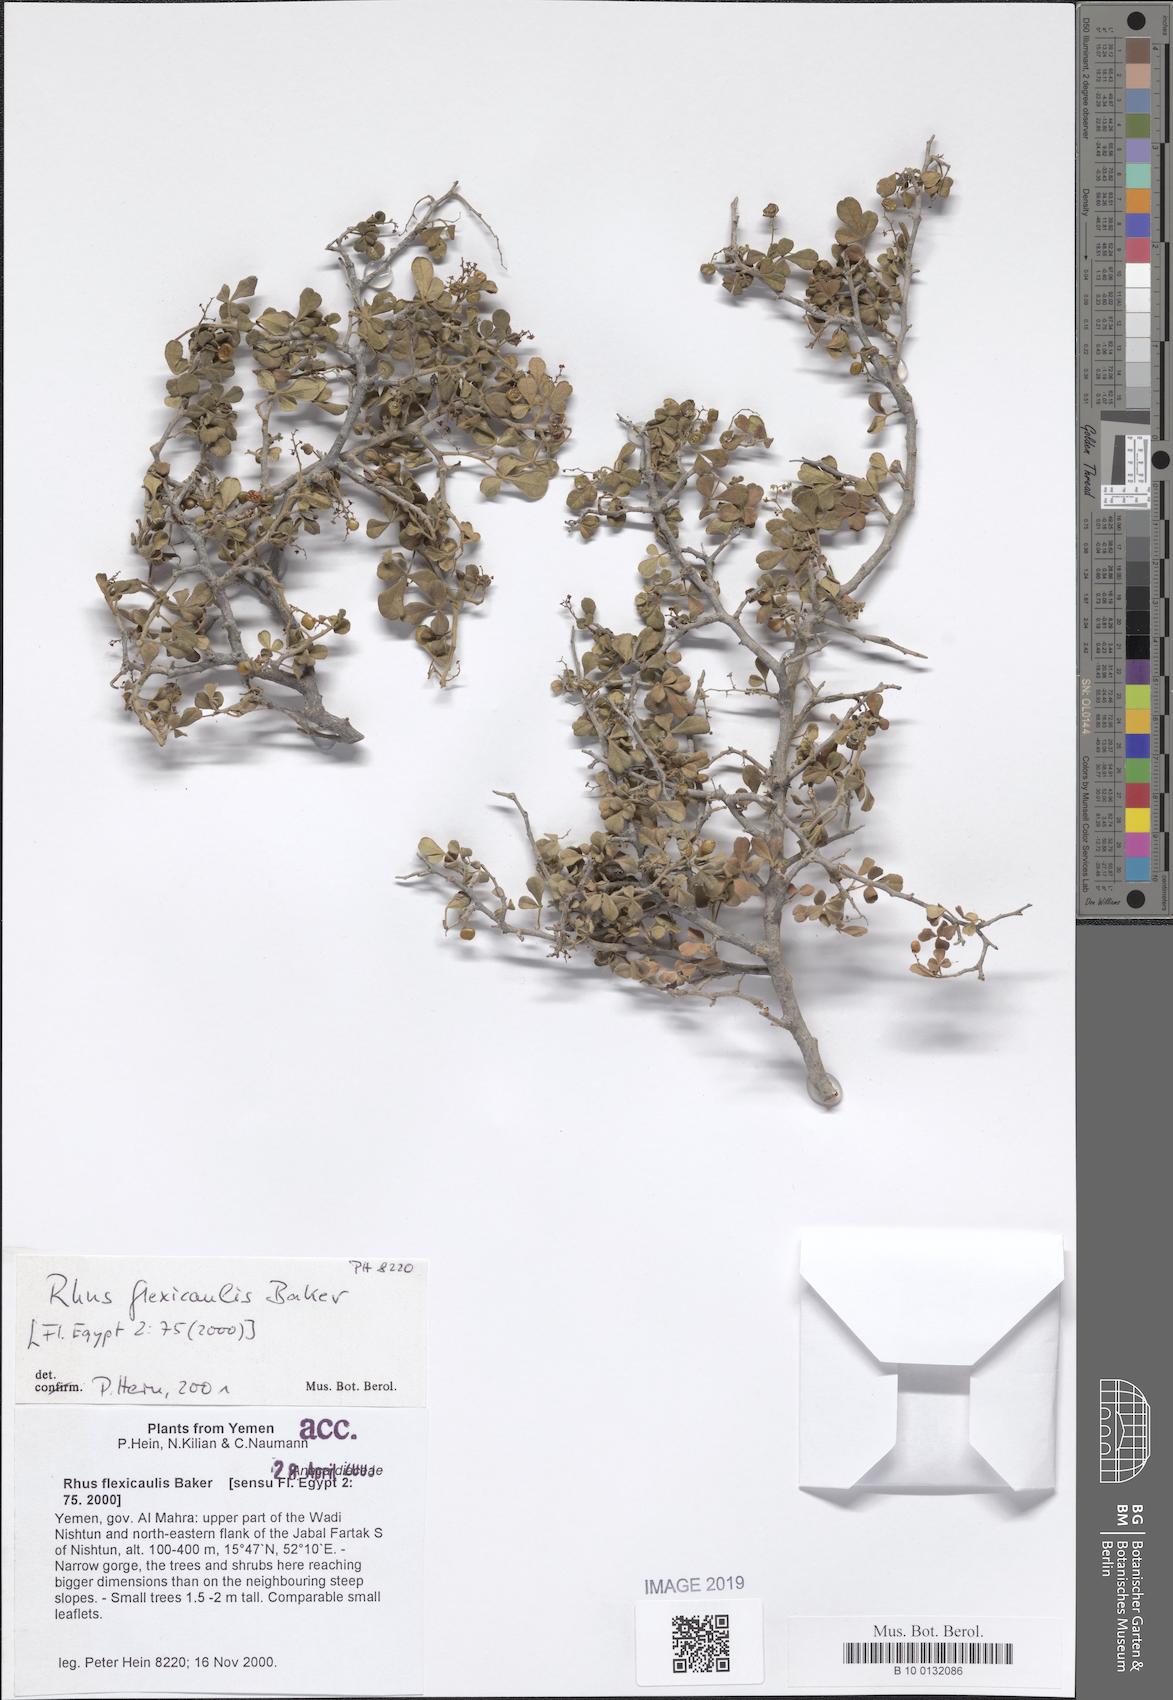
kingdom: Plantae
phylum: Tracheophyta
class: Magnoliopsida
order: Sapindales
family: Anacardiaceae
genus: Searsia
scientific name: Searsia flexicaulis
